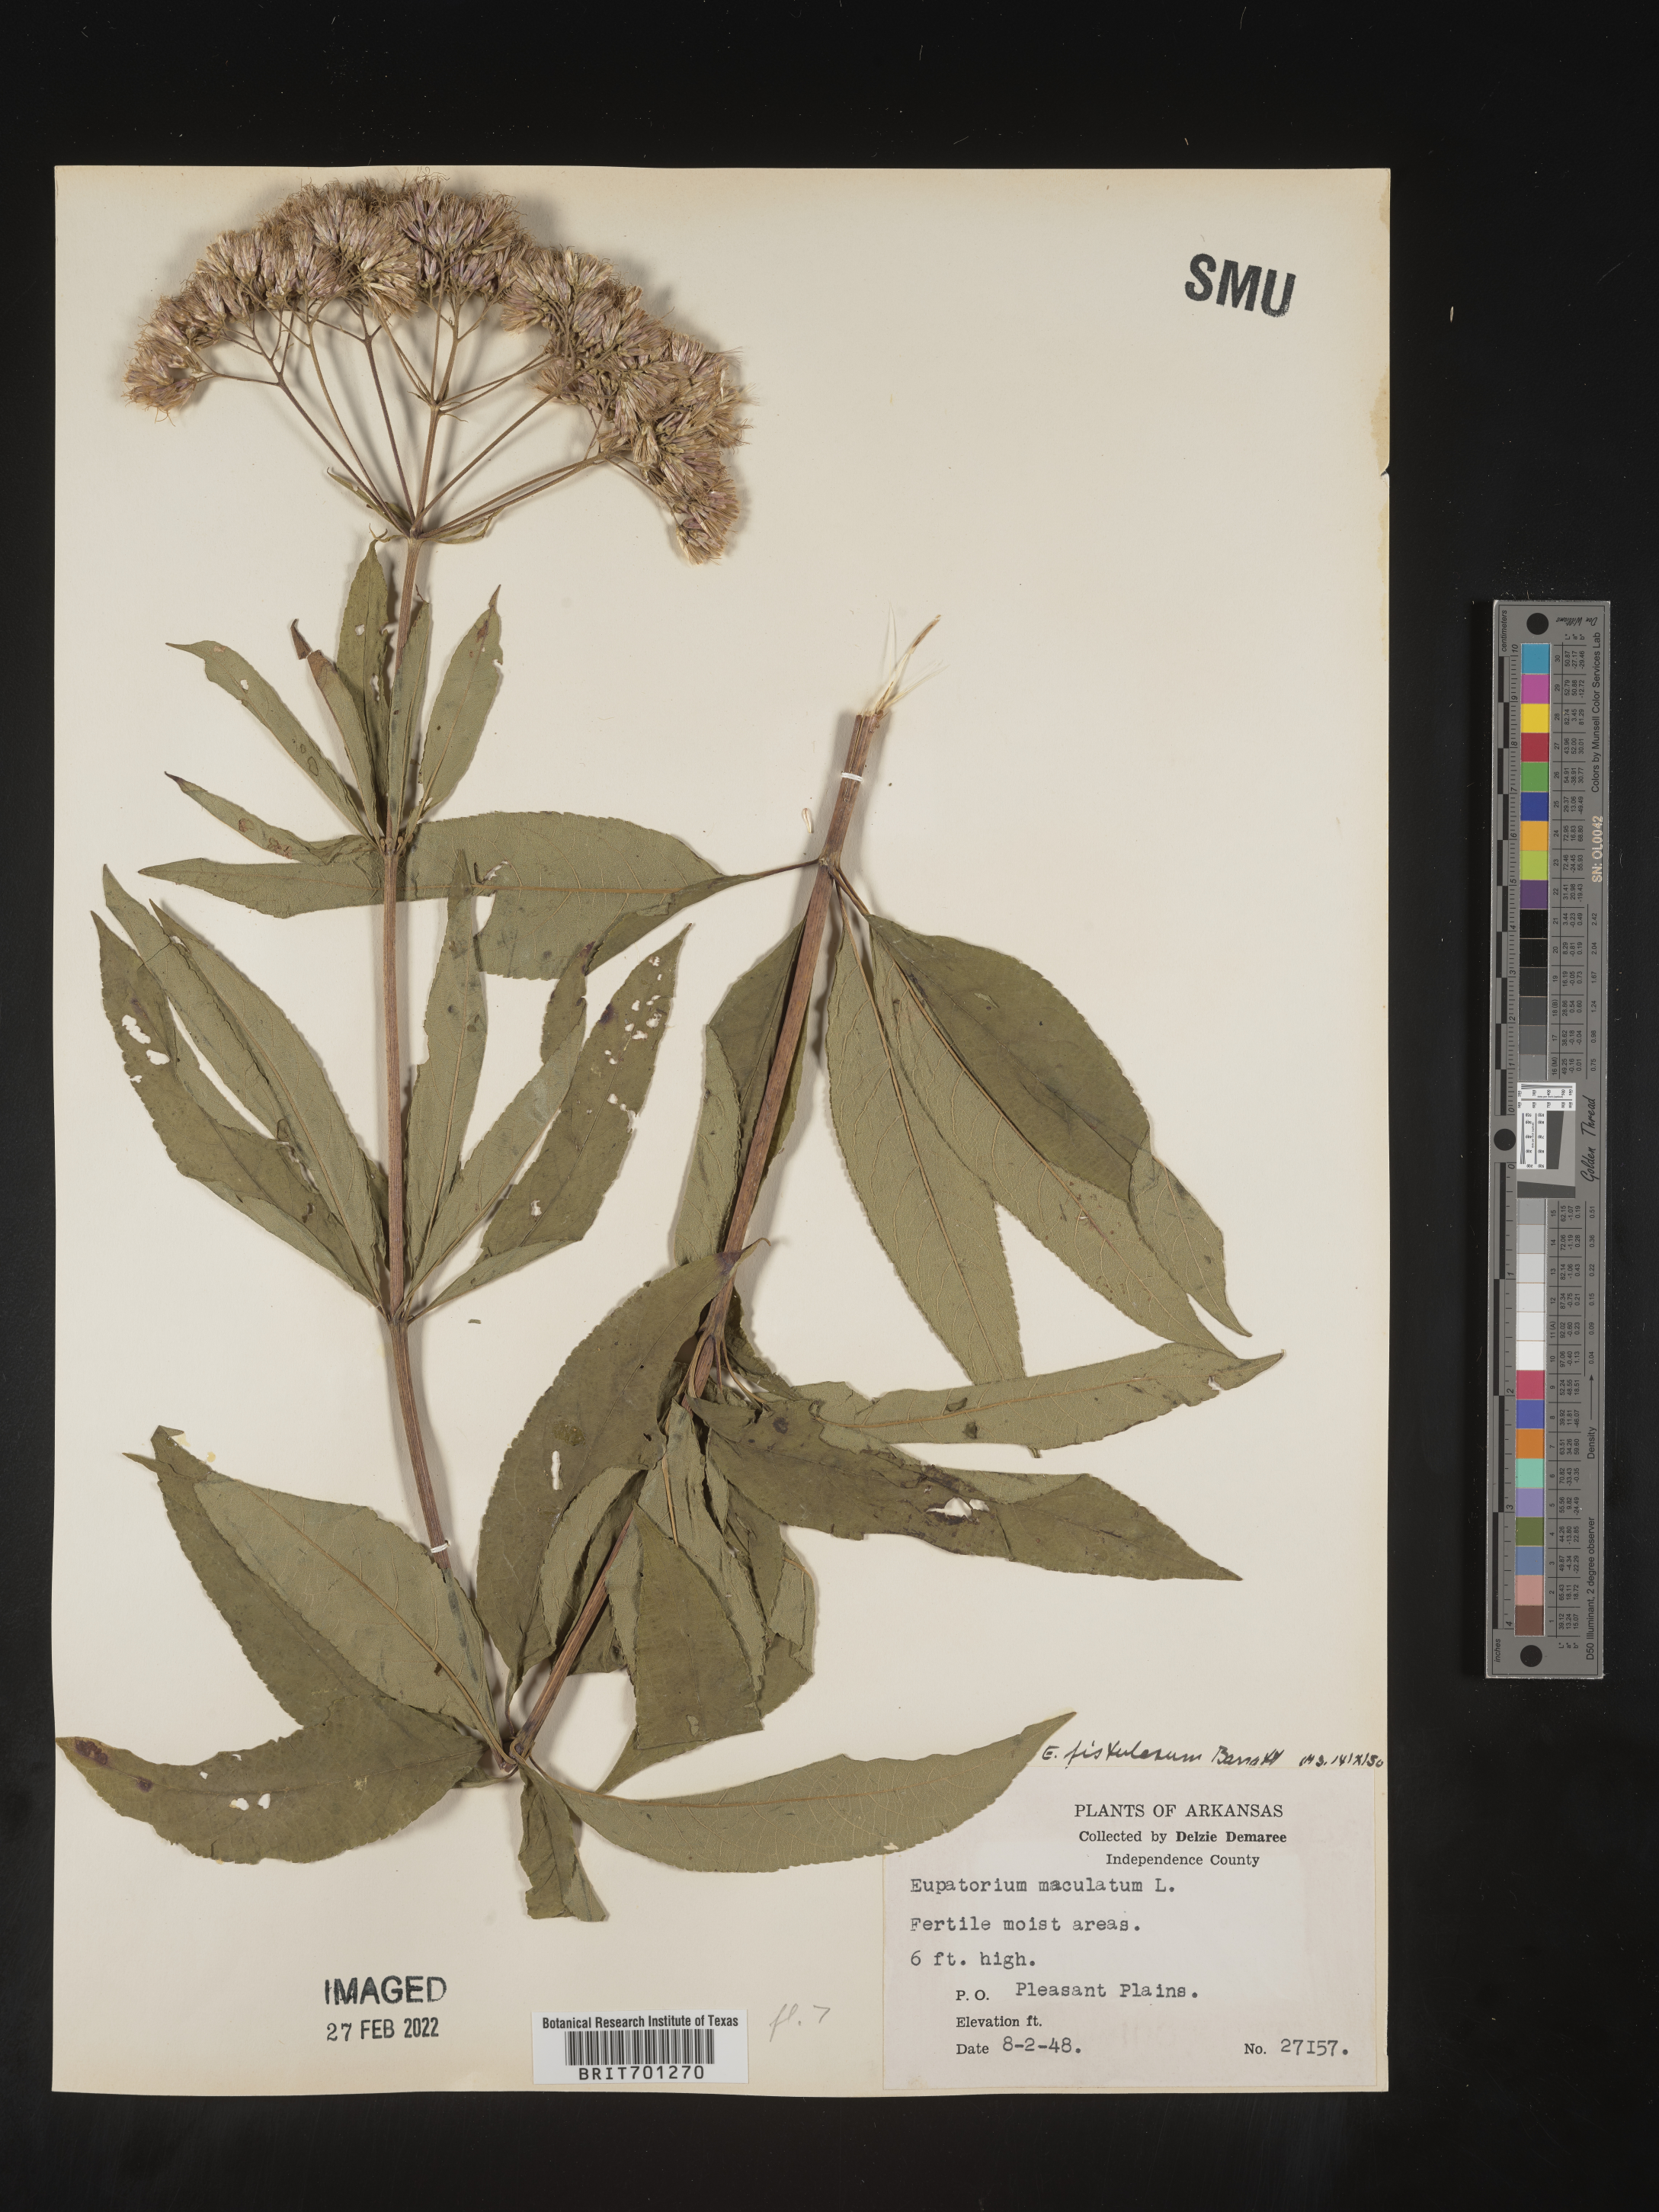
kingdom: Plantae
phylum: Tracheophyta
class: Magnoliopsida
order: Asterales
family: Asteraceae
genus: Eutrochium
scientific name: Eutrochium fistulosum
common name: Trumpetweed
